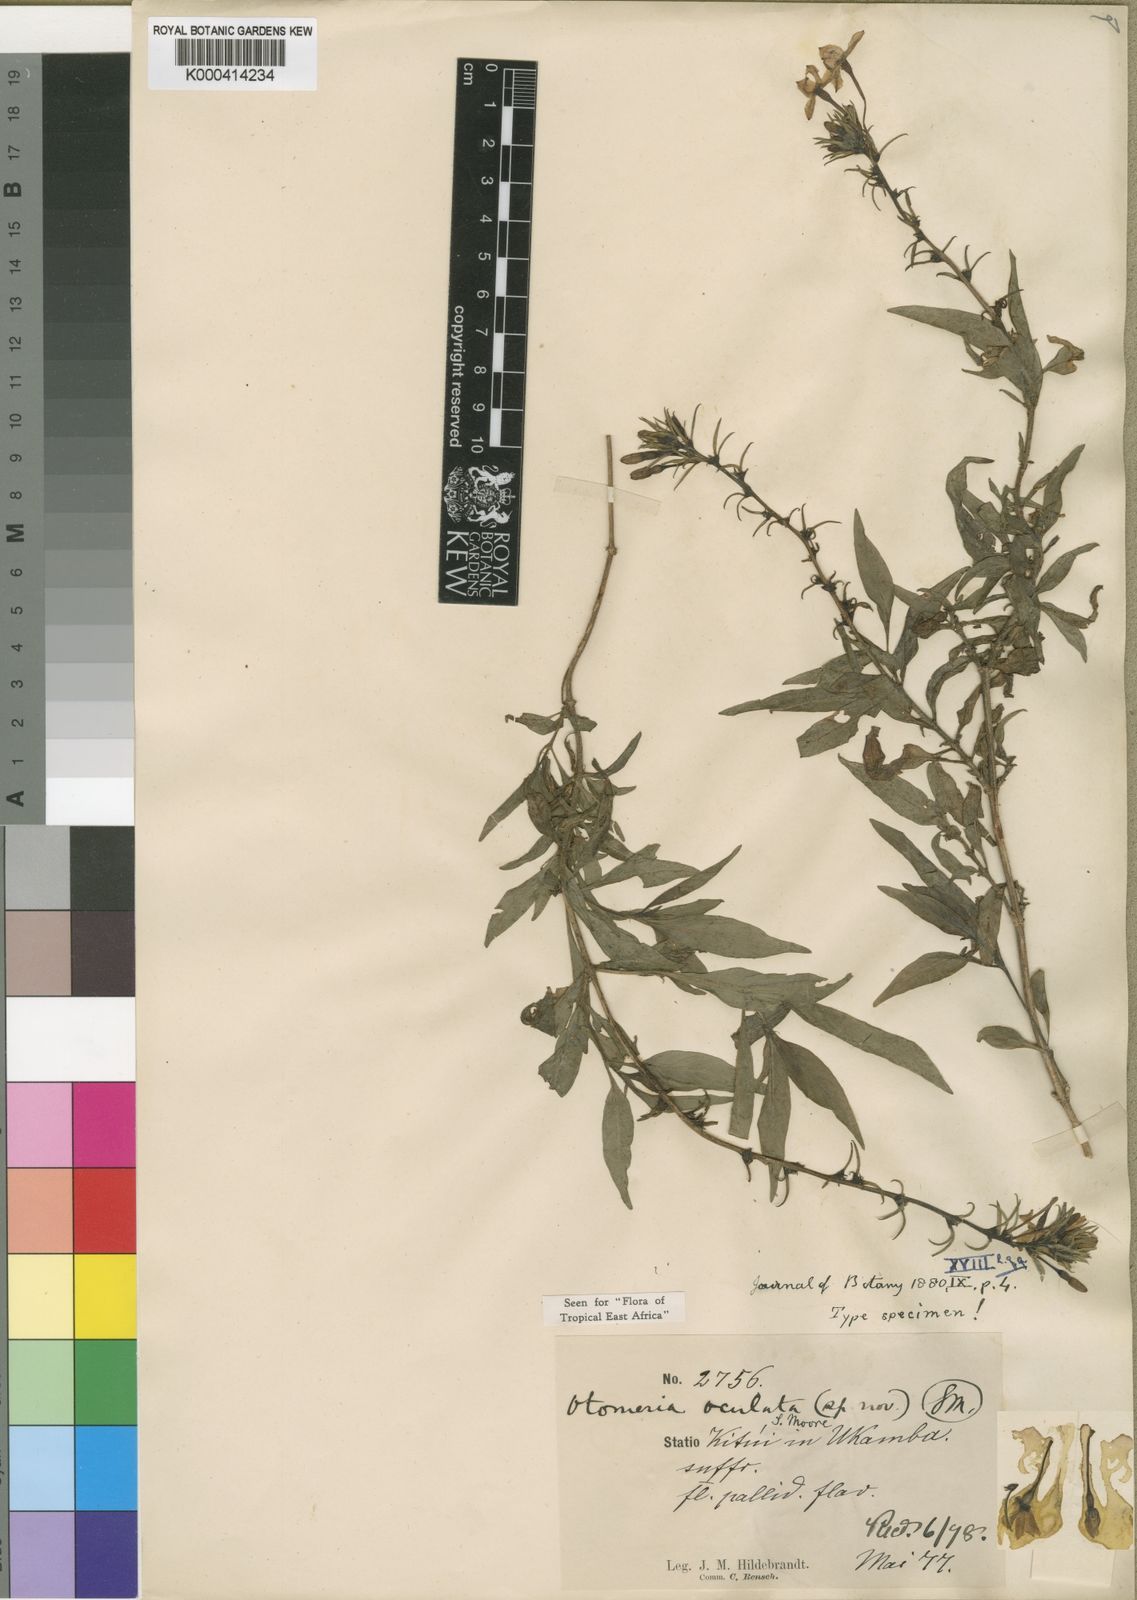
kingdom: Plantae
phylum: Tracheophyta
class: Magnoliopsida
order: Gentianales
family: Rubiaceae
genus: Otomeria
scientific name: Otomeria oculata
